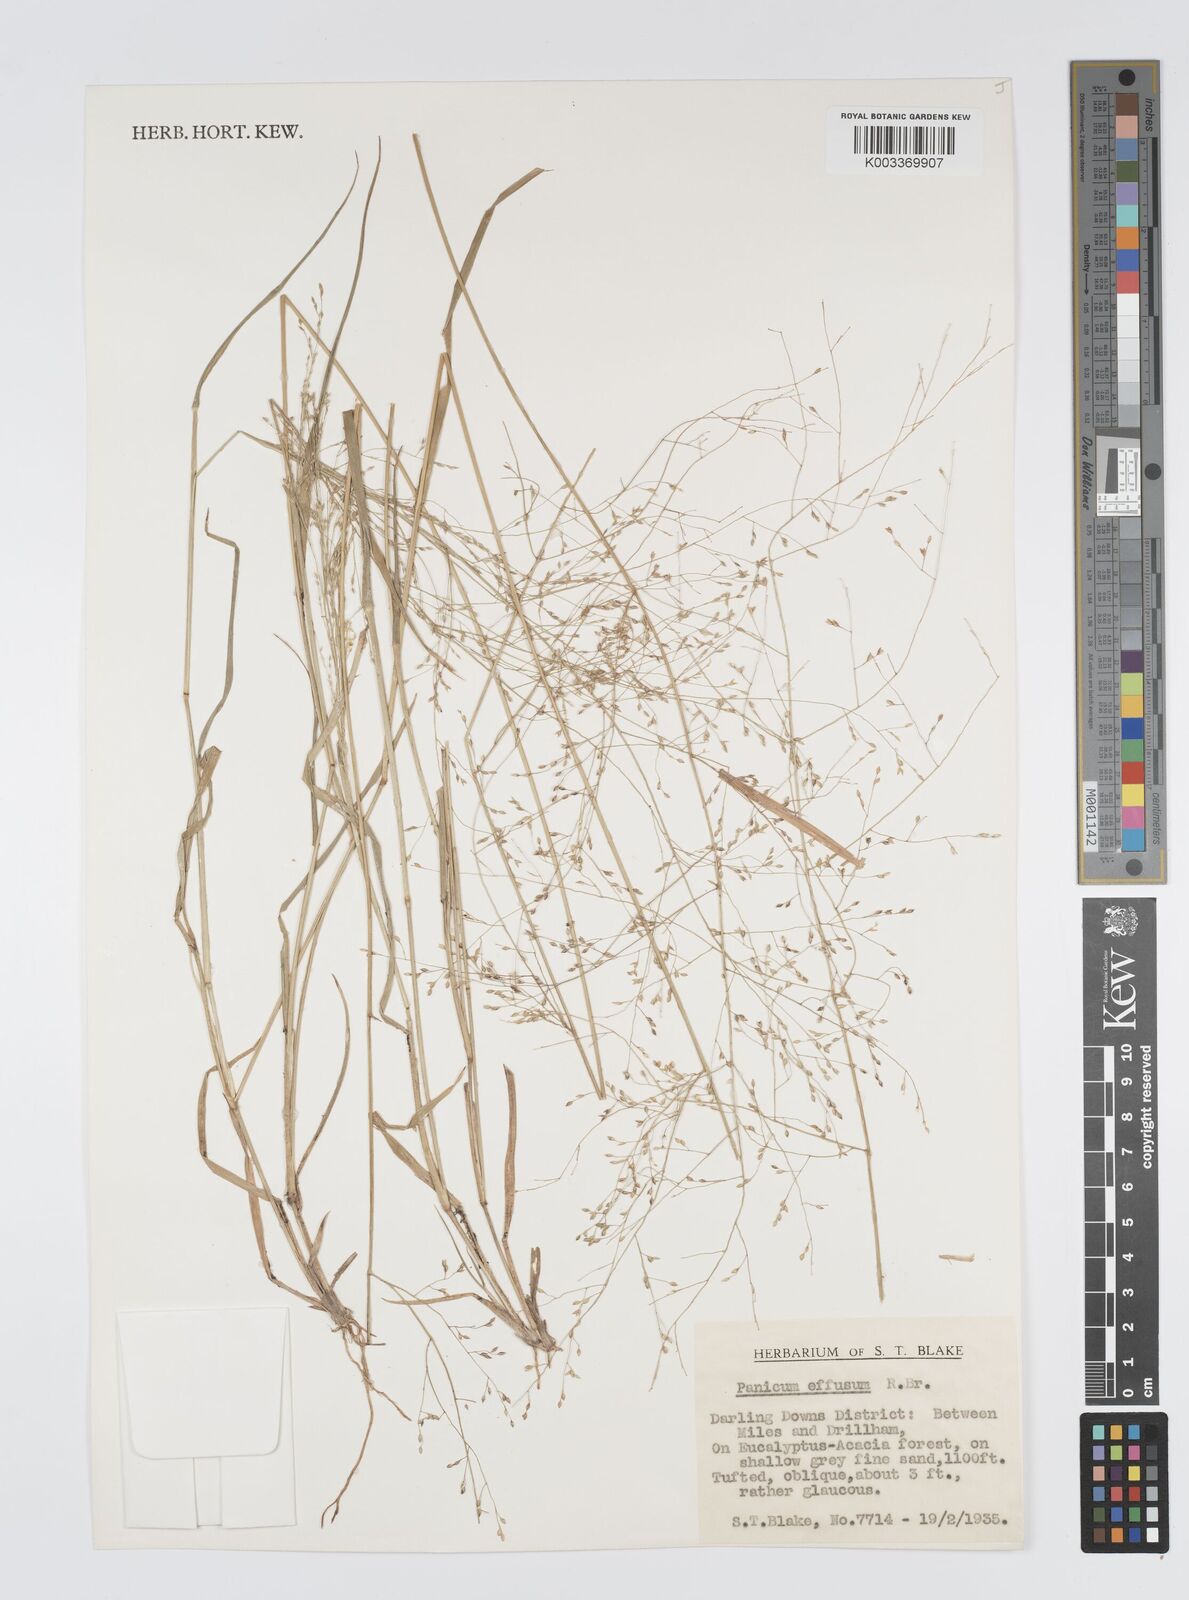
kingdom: Plantae
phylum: Tracheophyta
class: Liliopsida
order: Poales
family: Poaceae
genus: Panicum
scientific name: Panicum effusum
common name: Hairy panic grass
